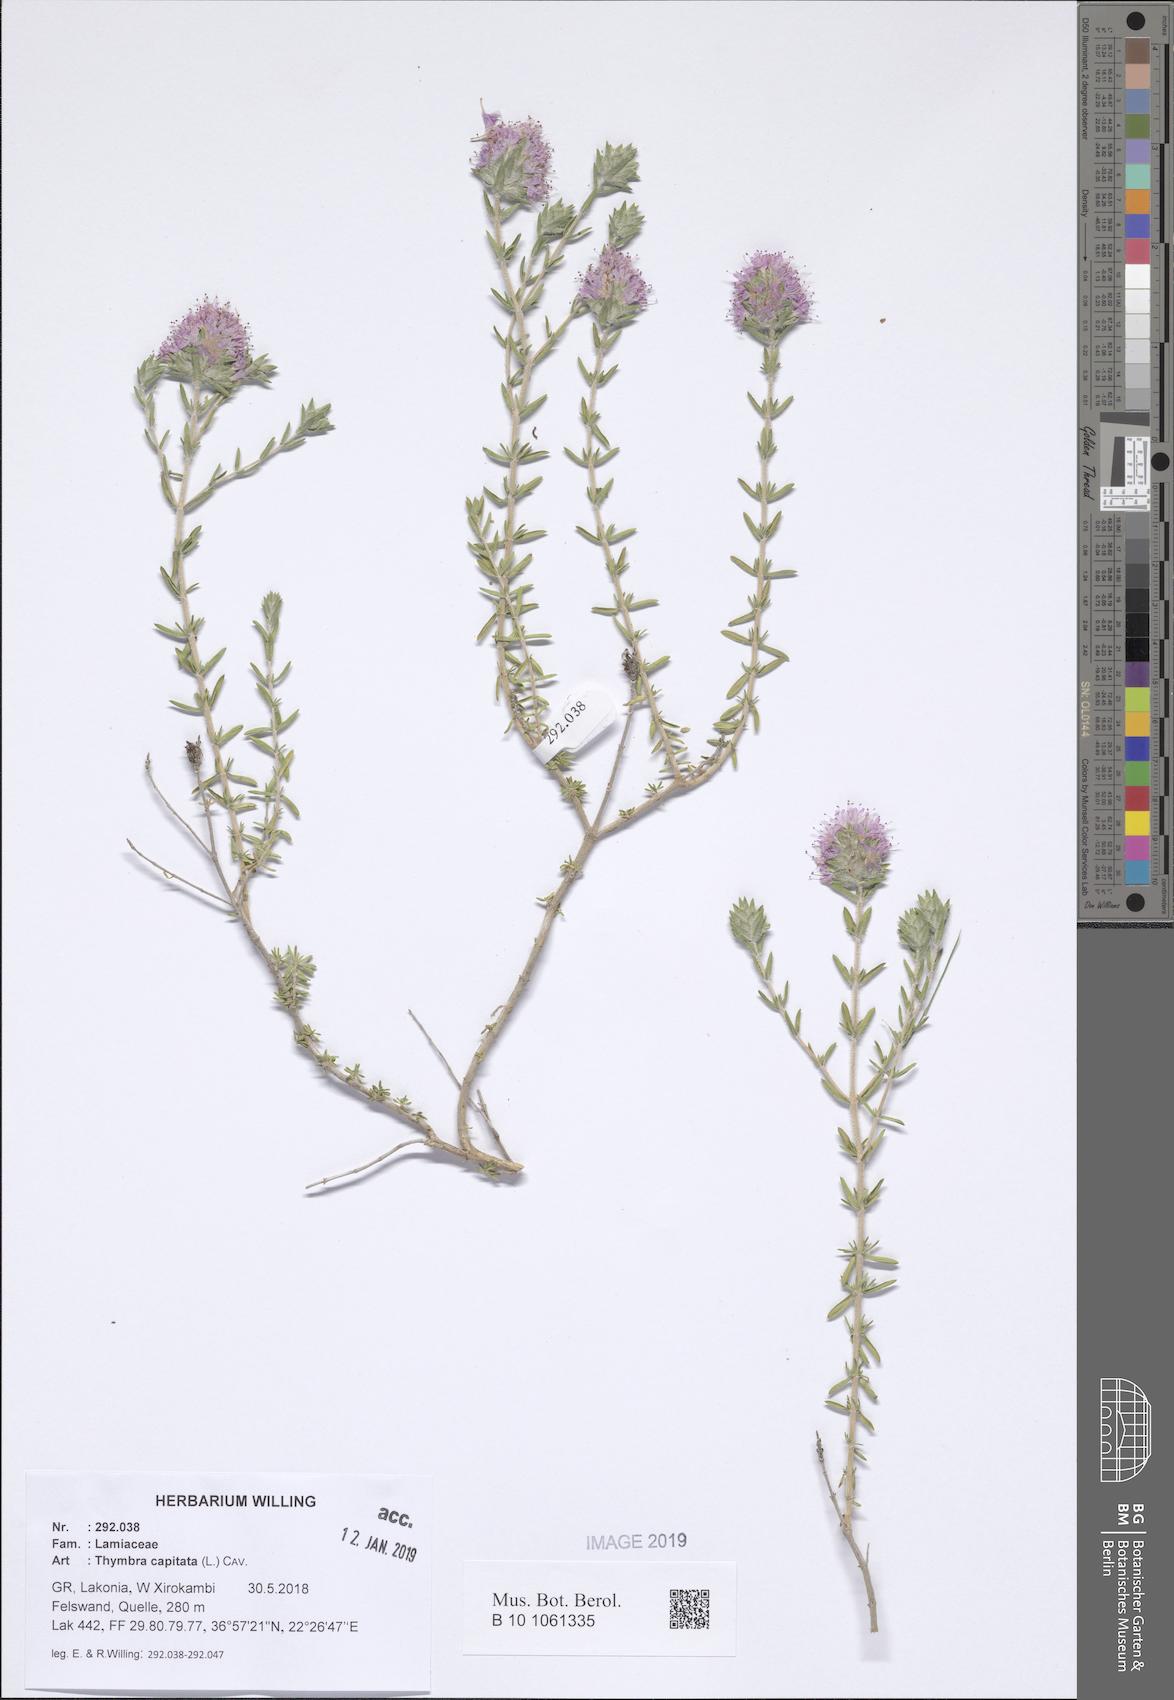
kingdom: Plantae
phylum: Tracheophyta
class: Magnoliopsida
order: Lamiales
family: Lamiaceae
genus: Thymbra
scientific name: Thymbra capitata
